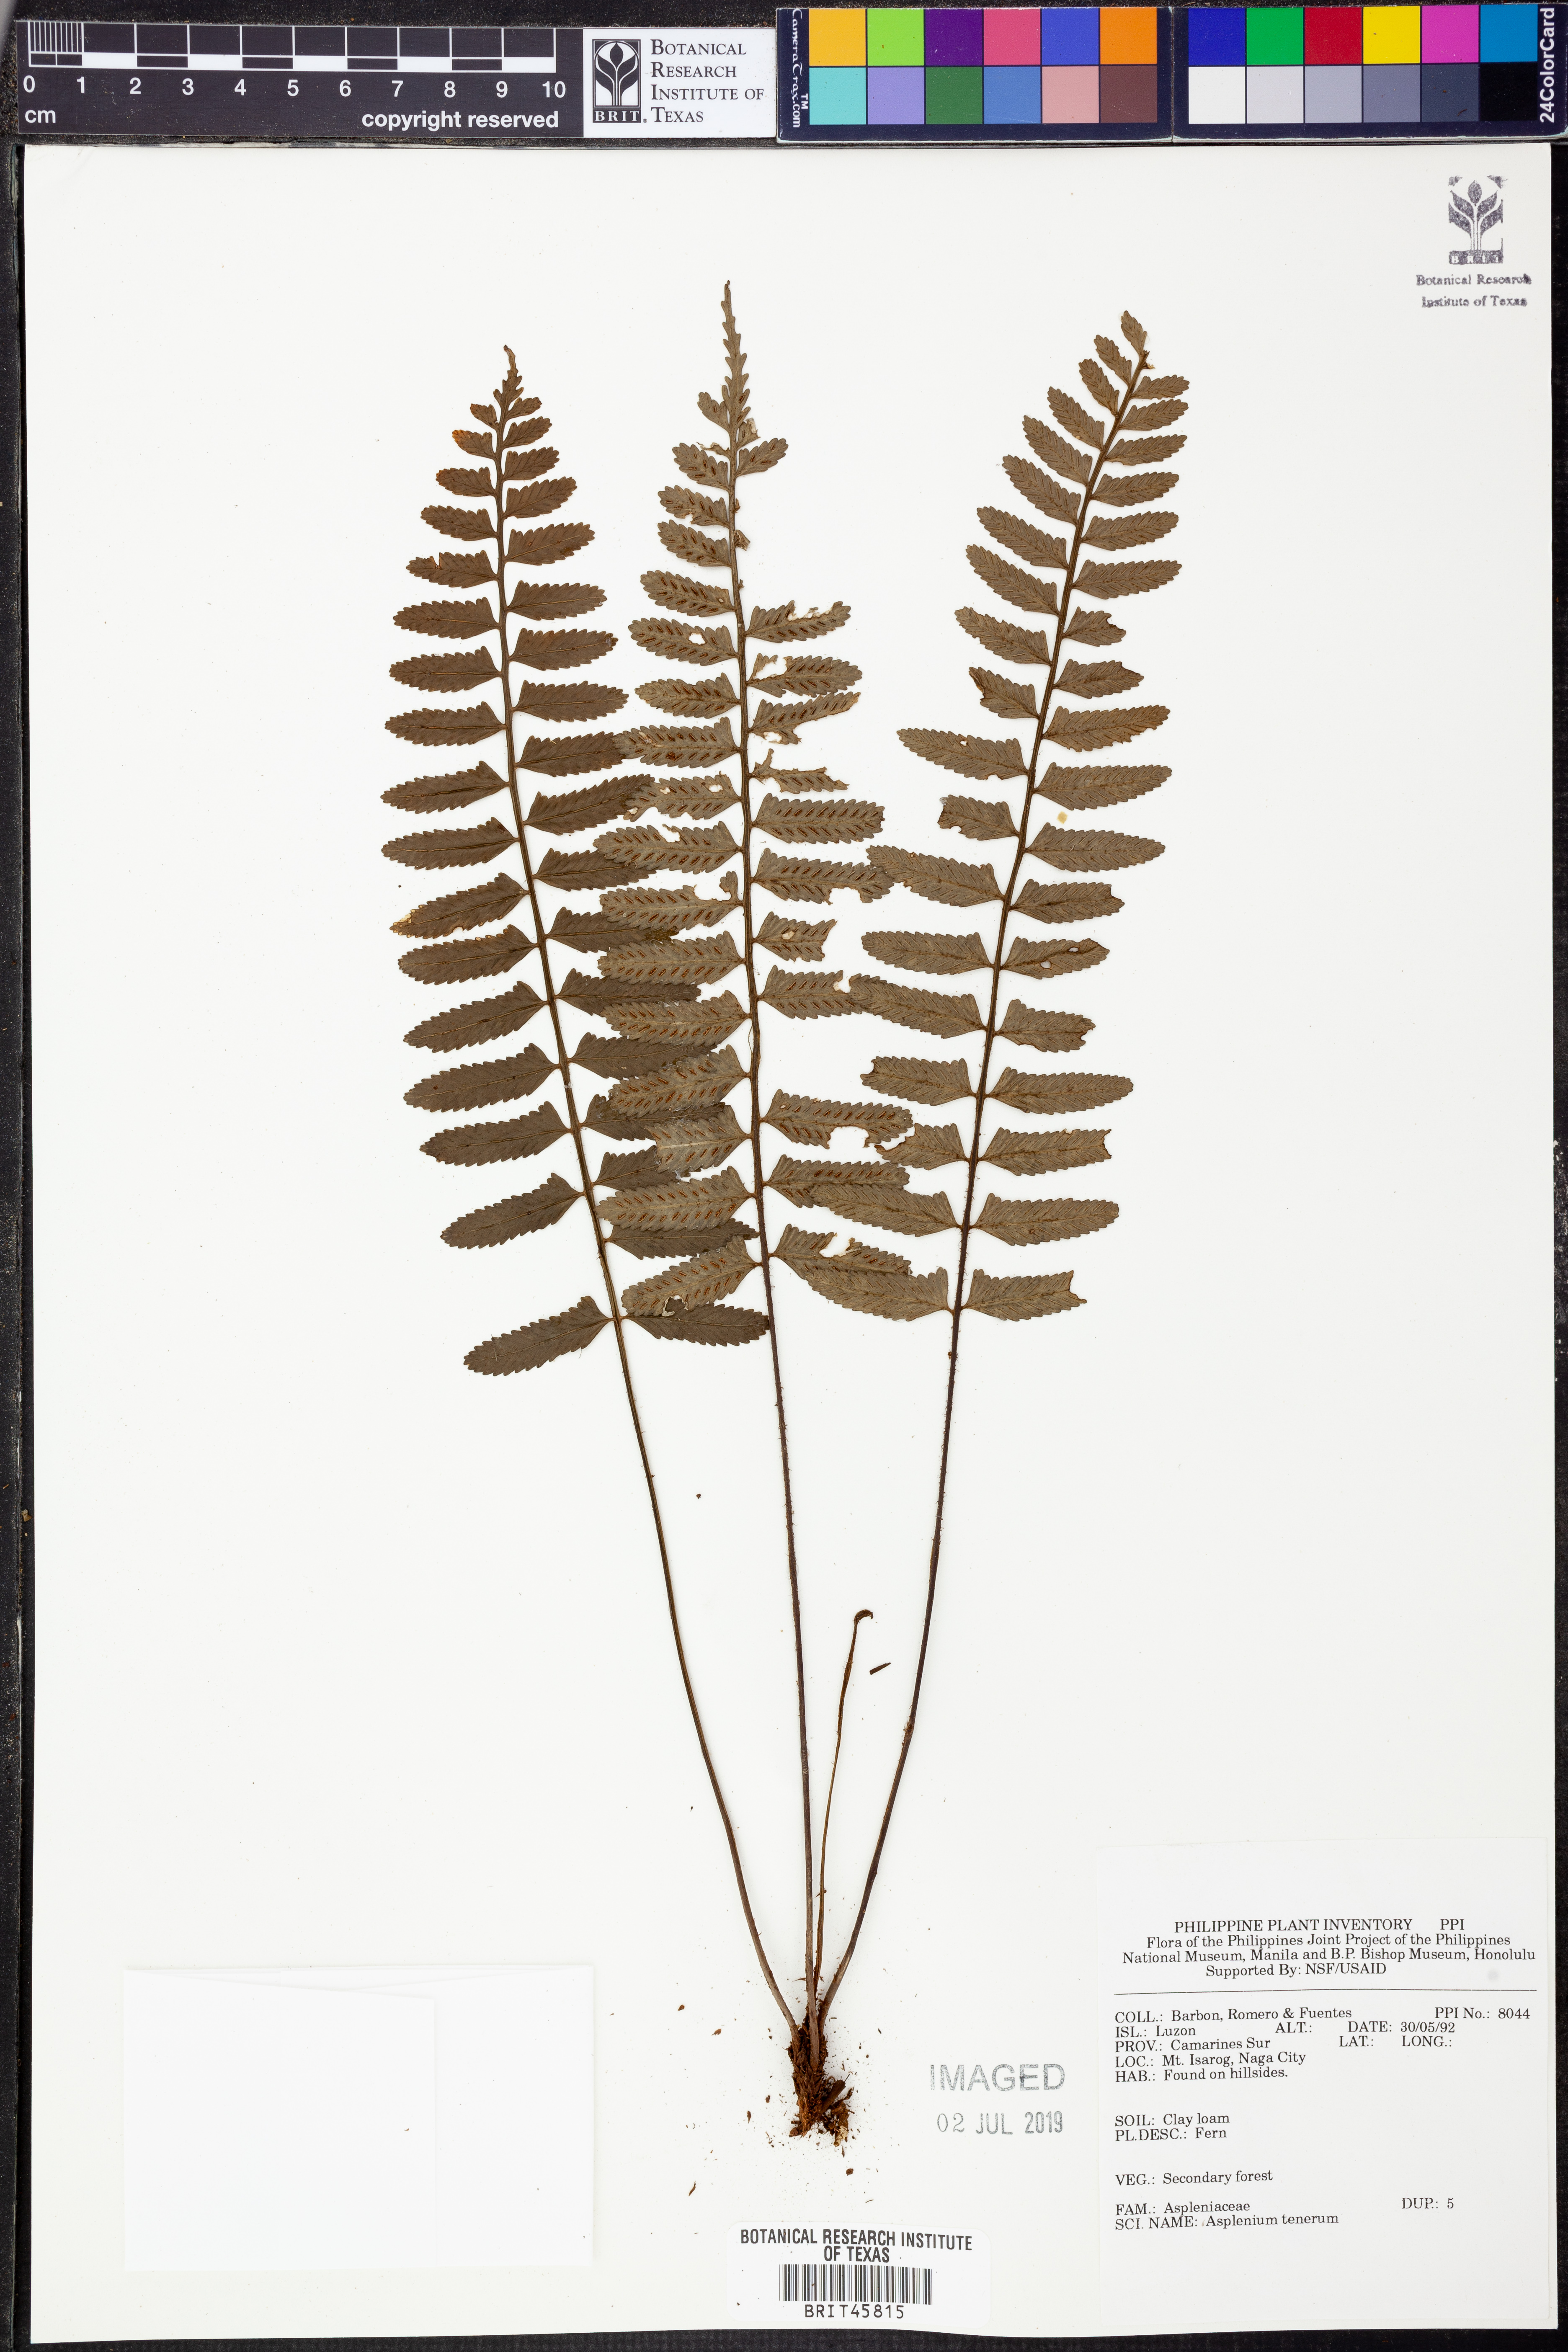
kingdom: Plantae
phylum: Tracheophyta
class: Polypodiopsida
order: Polypodiales
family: Aspleniaceae
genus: Asplenium
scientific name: Asplenium auriculatum
